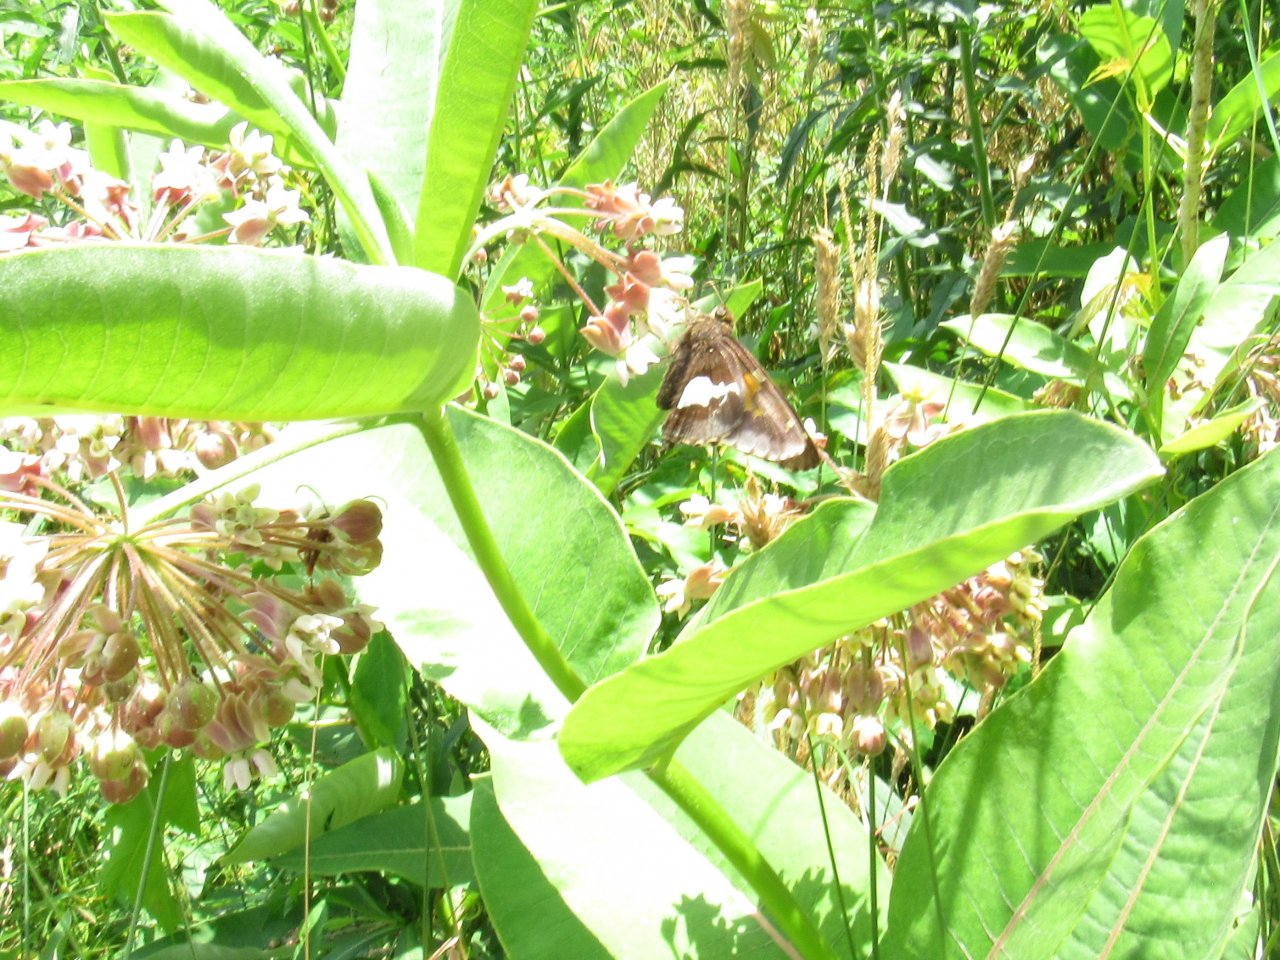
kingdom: Animalia
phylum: Arthropoda
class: Insecta
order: Lepidoptera
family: Hesperiidae
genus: Epargyreus
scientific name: Epargyreus clarus
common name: Silver-spotted Skipper
